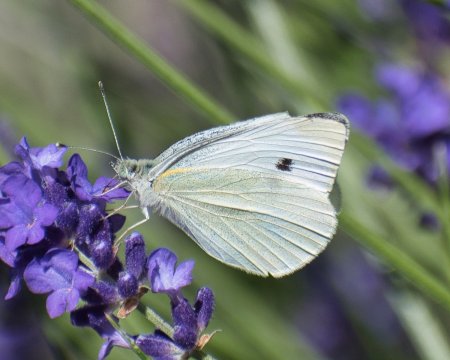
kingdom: Animalia
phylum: Arthropoda
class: Insecta
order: Lepidoptera
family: Pieridae
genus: Pieris
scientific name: Pieris rapae
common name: Cabbage White
